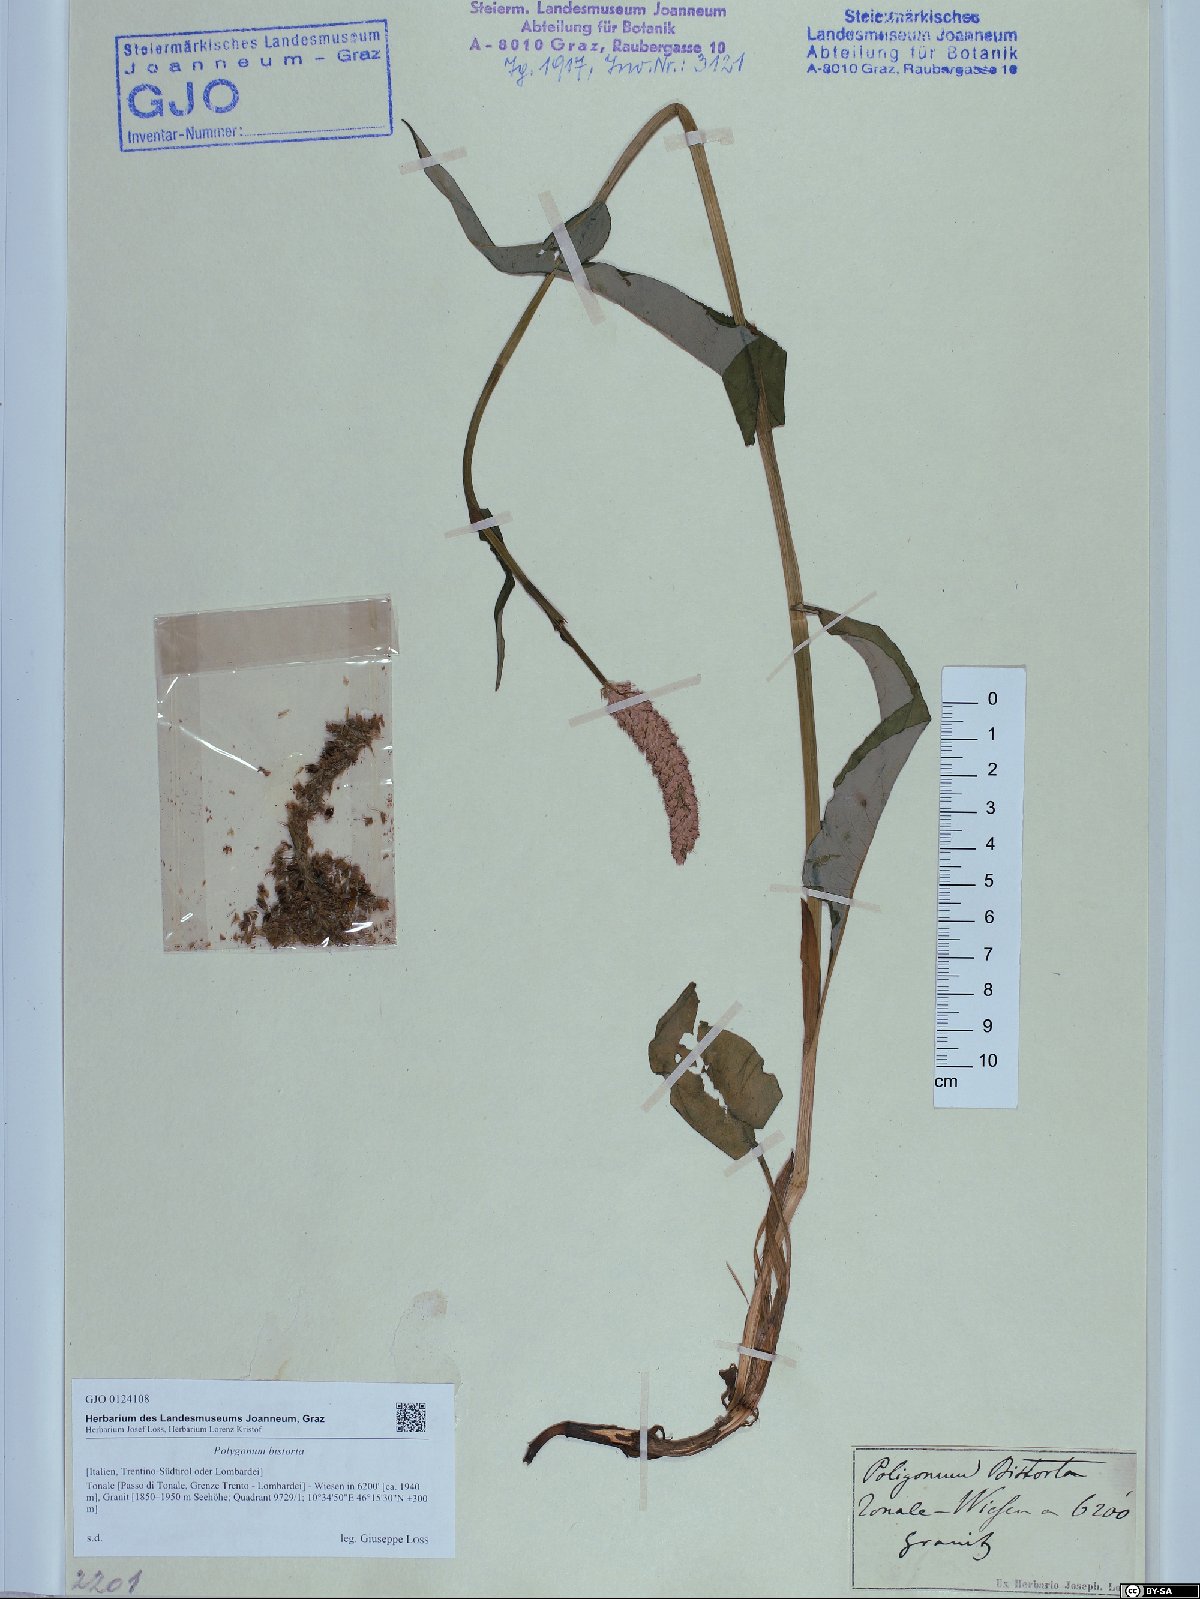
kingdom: Plantae
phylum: Tracheophyta
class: Magnoliopsida
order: Caryophyllales
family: Polygonaceae
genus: Bistorta
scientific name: Bistorta officinalis
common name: Common bistort
